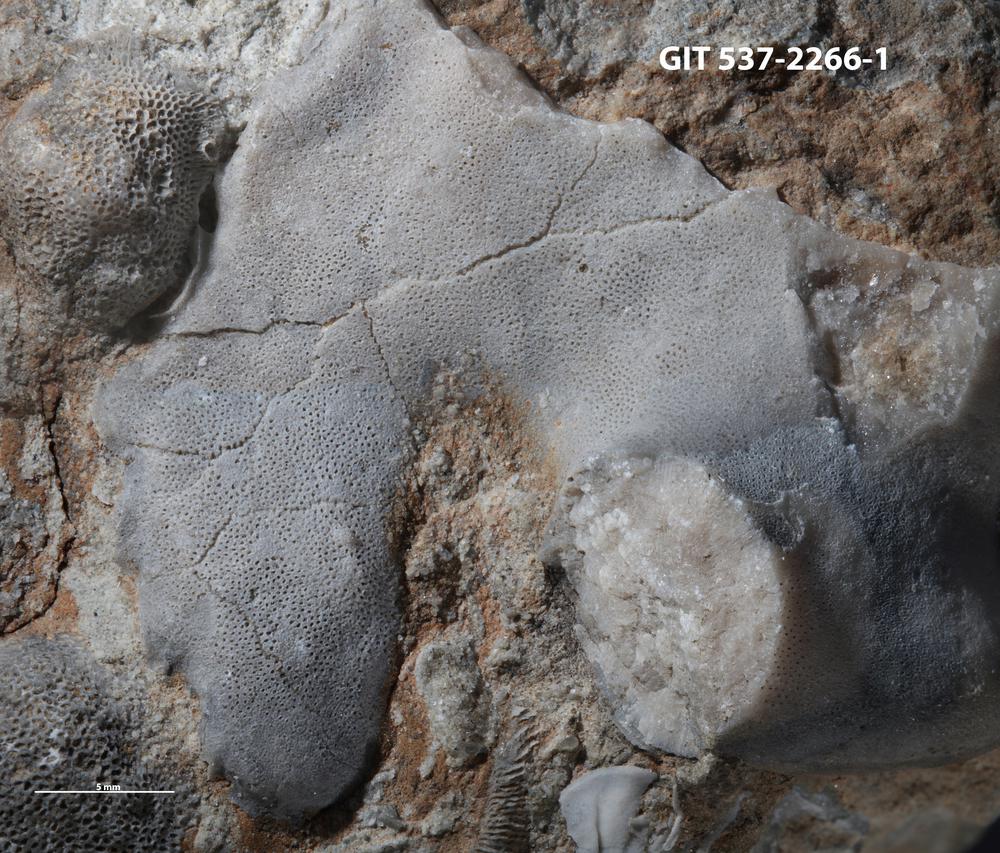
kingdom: Animalia
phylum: Bryozoa
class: Stenolaemata
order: Trepostomatida
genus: Pakripora
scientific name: Pakripora cavernosa
